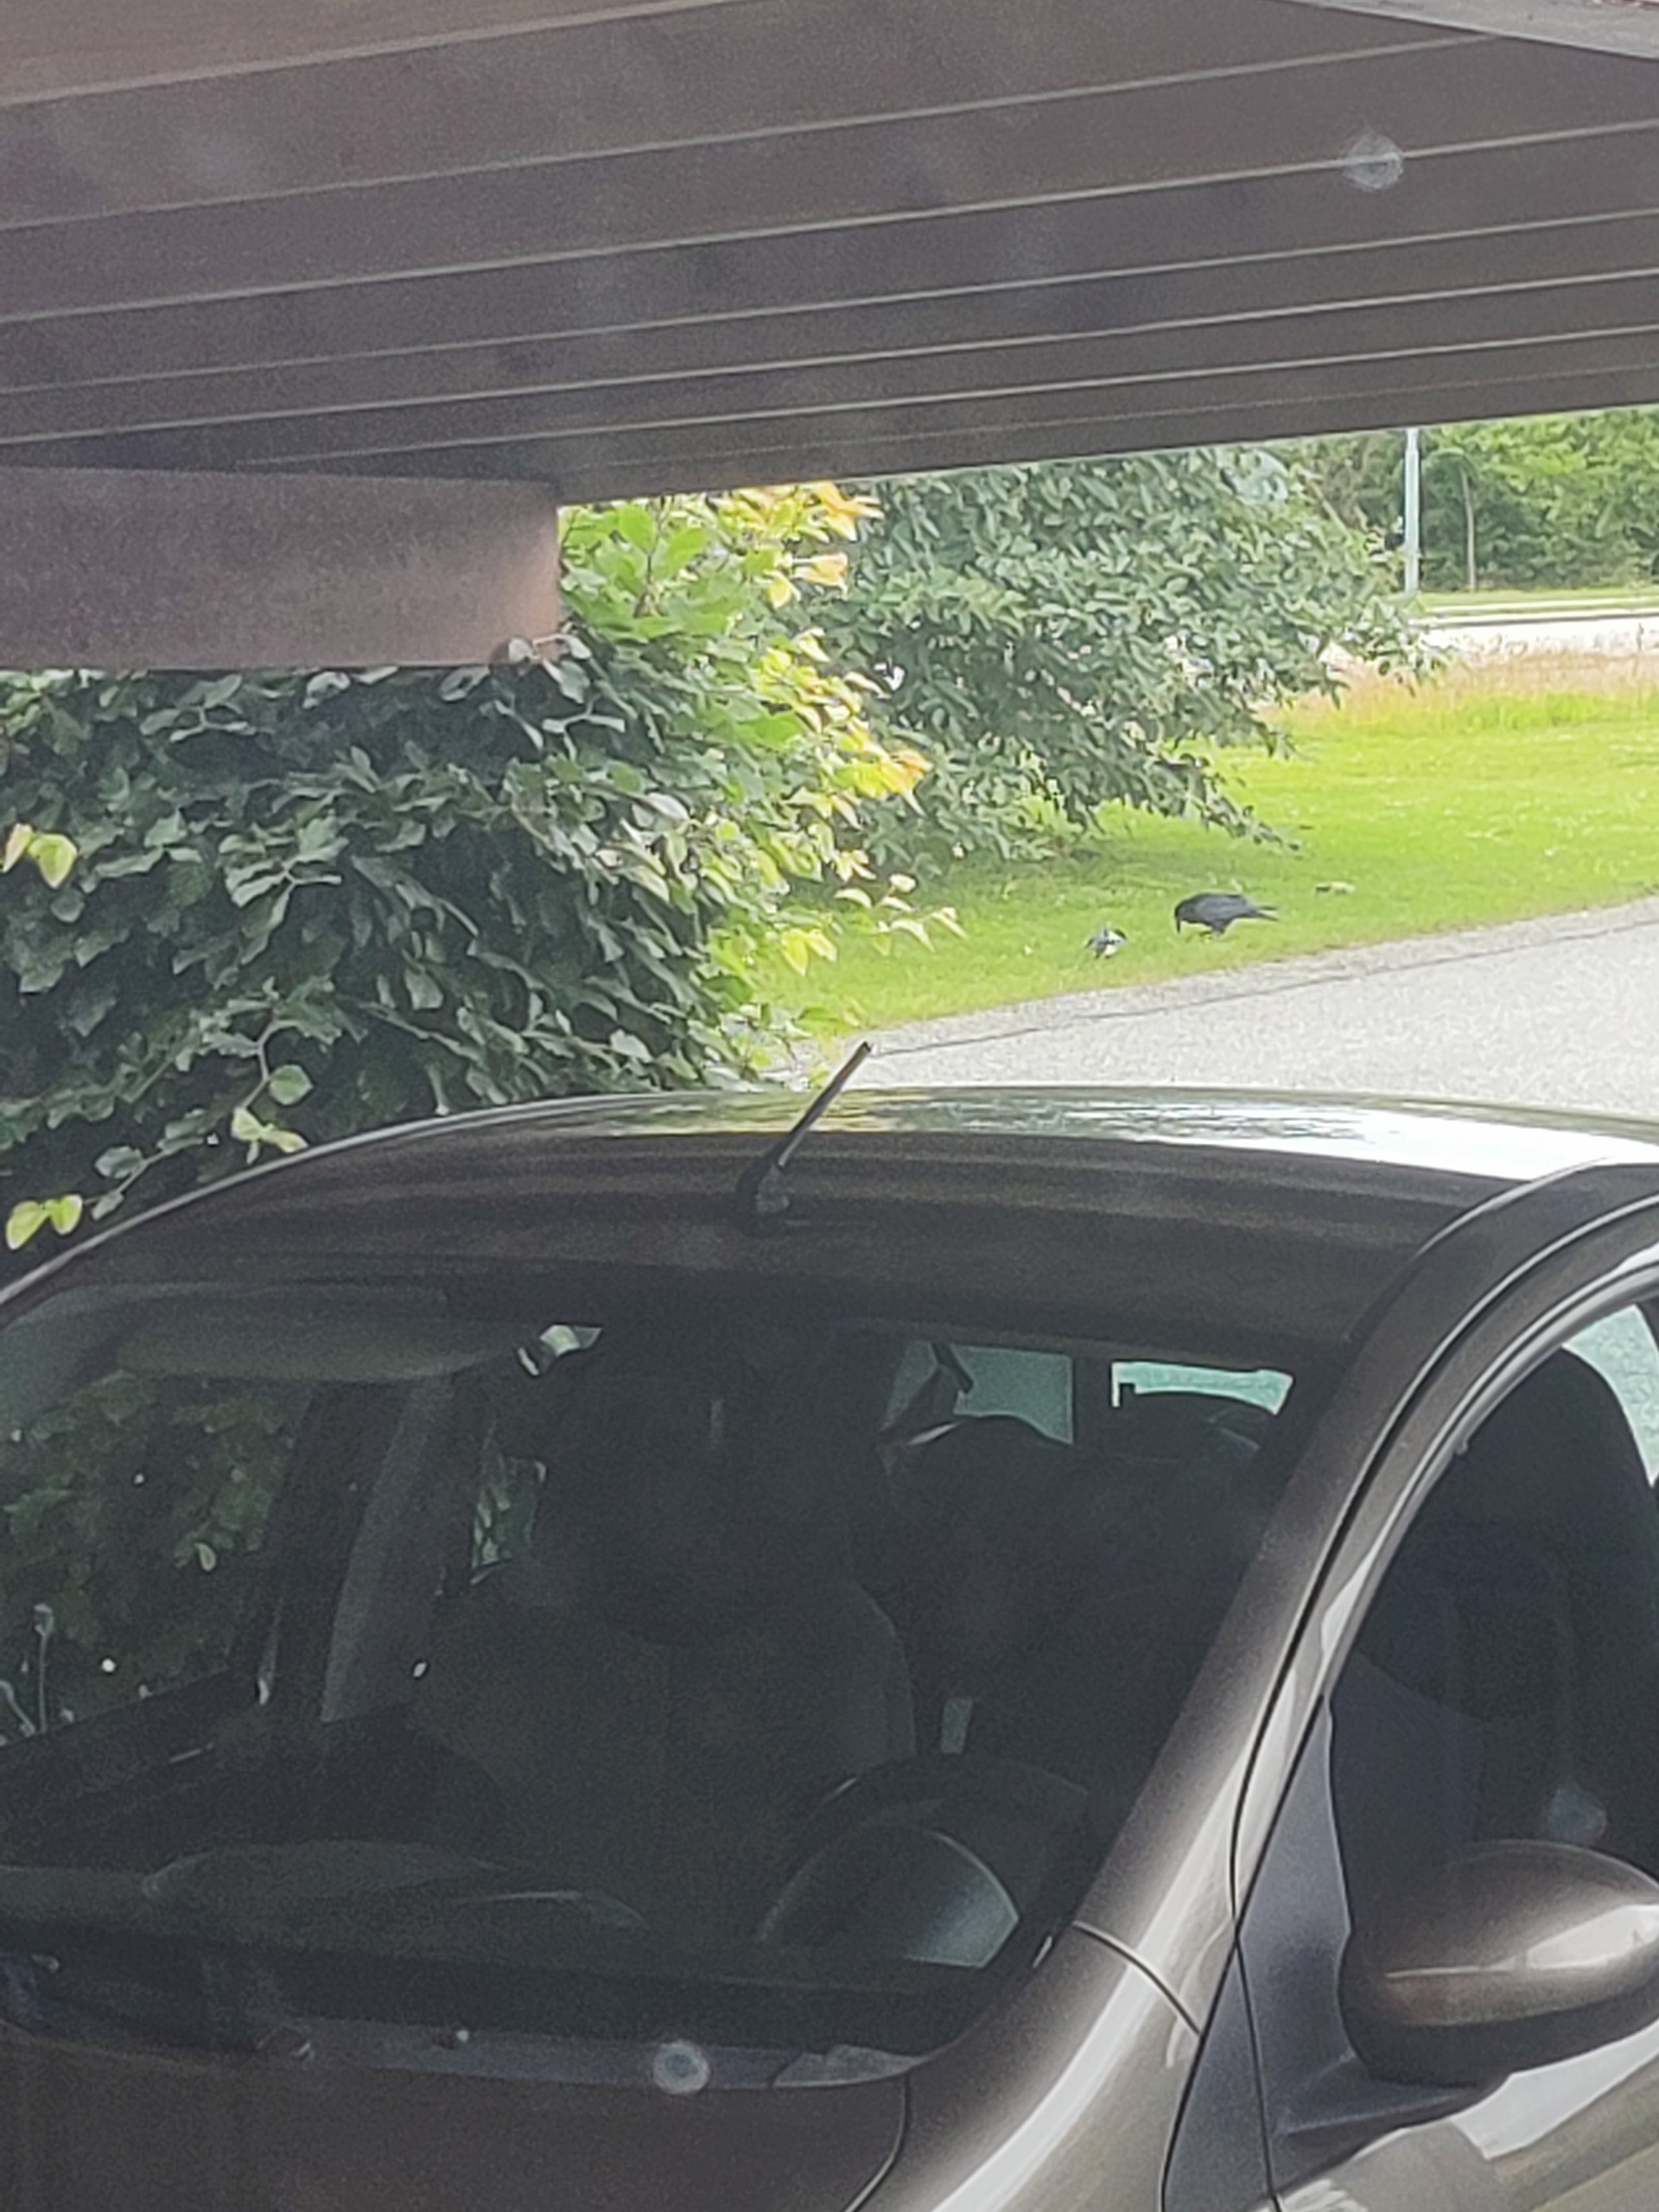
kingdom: Animalia
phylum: Chordata
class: Aves
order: Passeriformes
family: Corvidae
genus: Pica
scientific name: Pica pica
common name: Husskade
